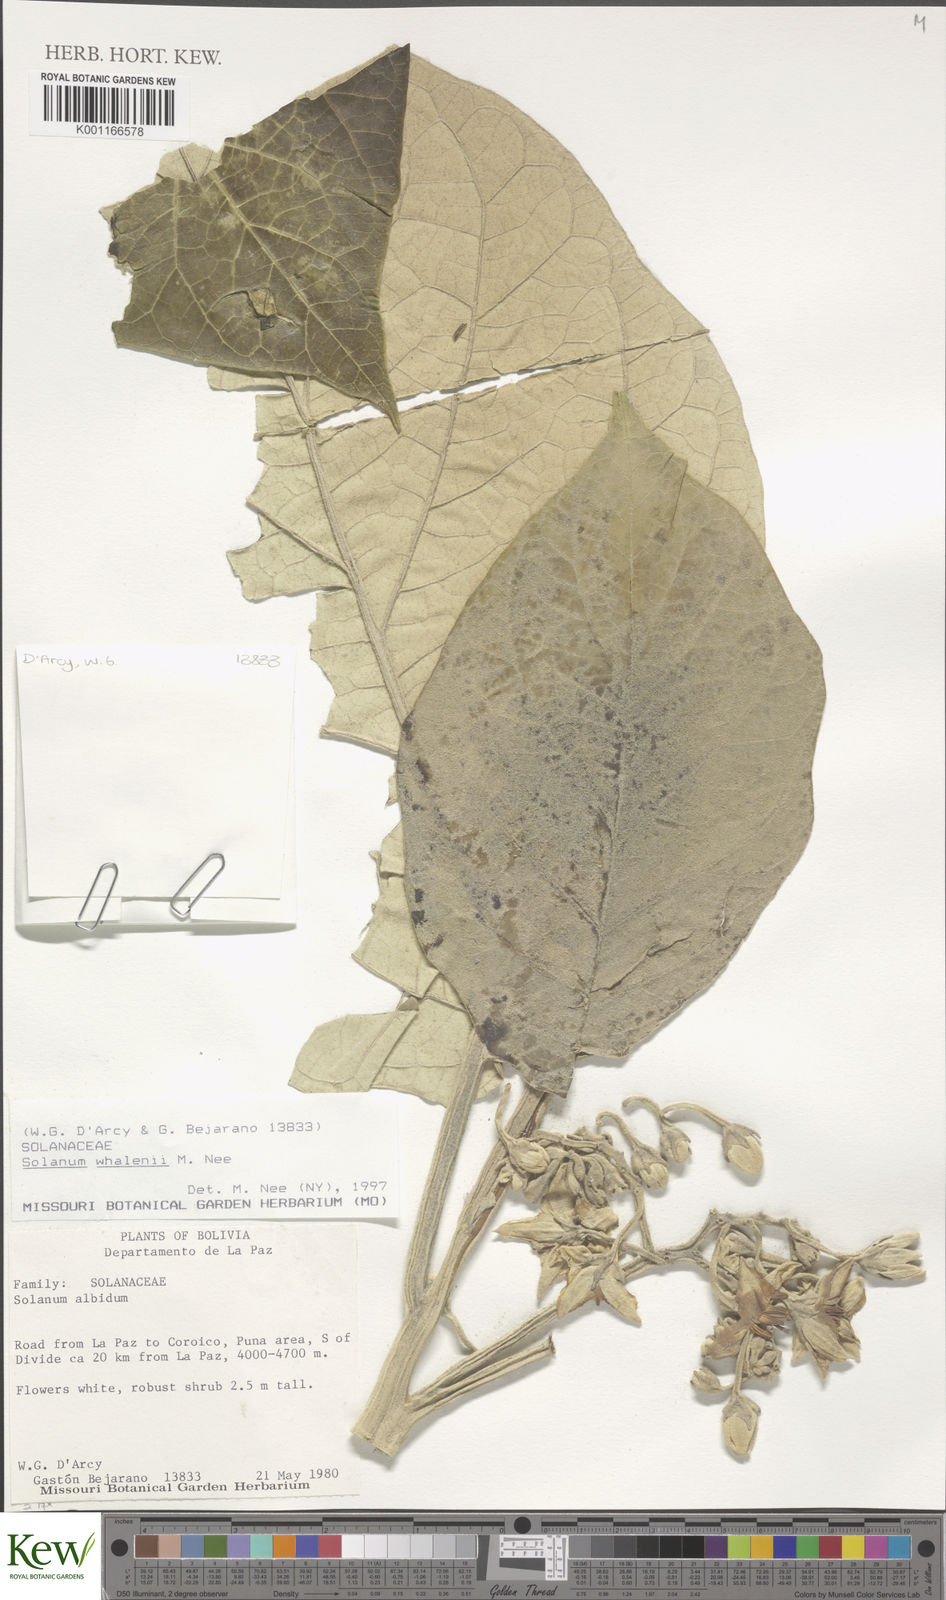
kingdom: Plantae
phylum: Tracheophyta
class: Magnoliopsida
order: Solanales
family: Solanaceae
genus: Solanum
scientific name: Solanum whalenii
